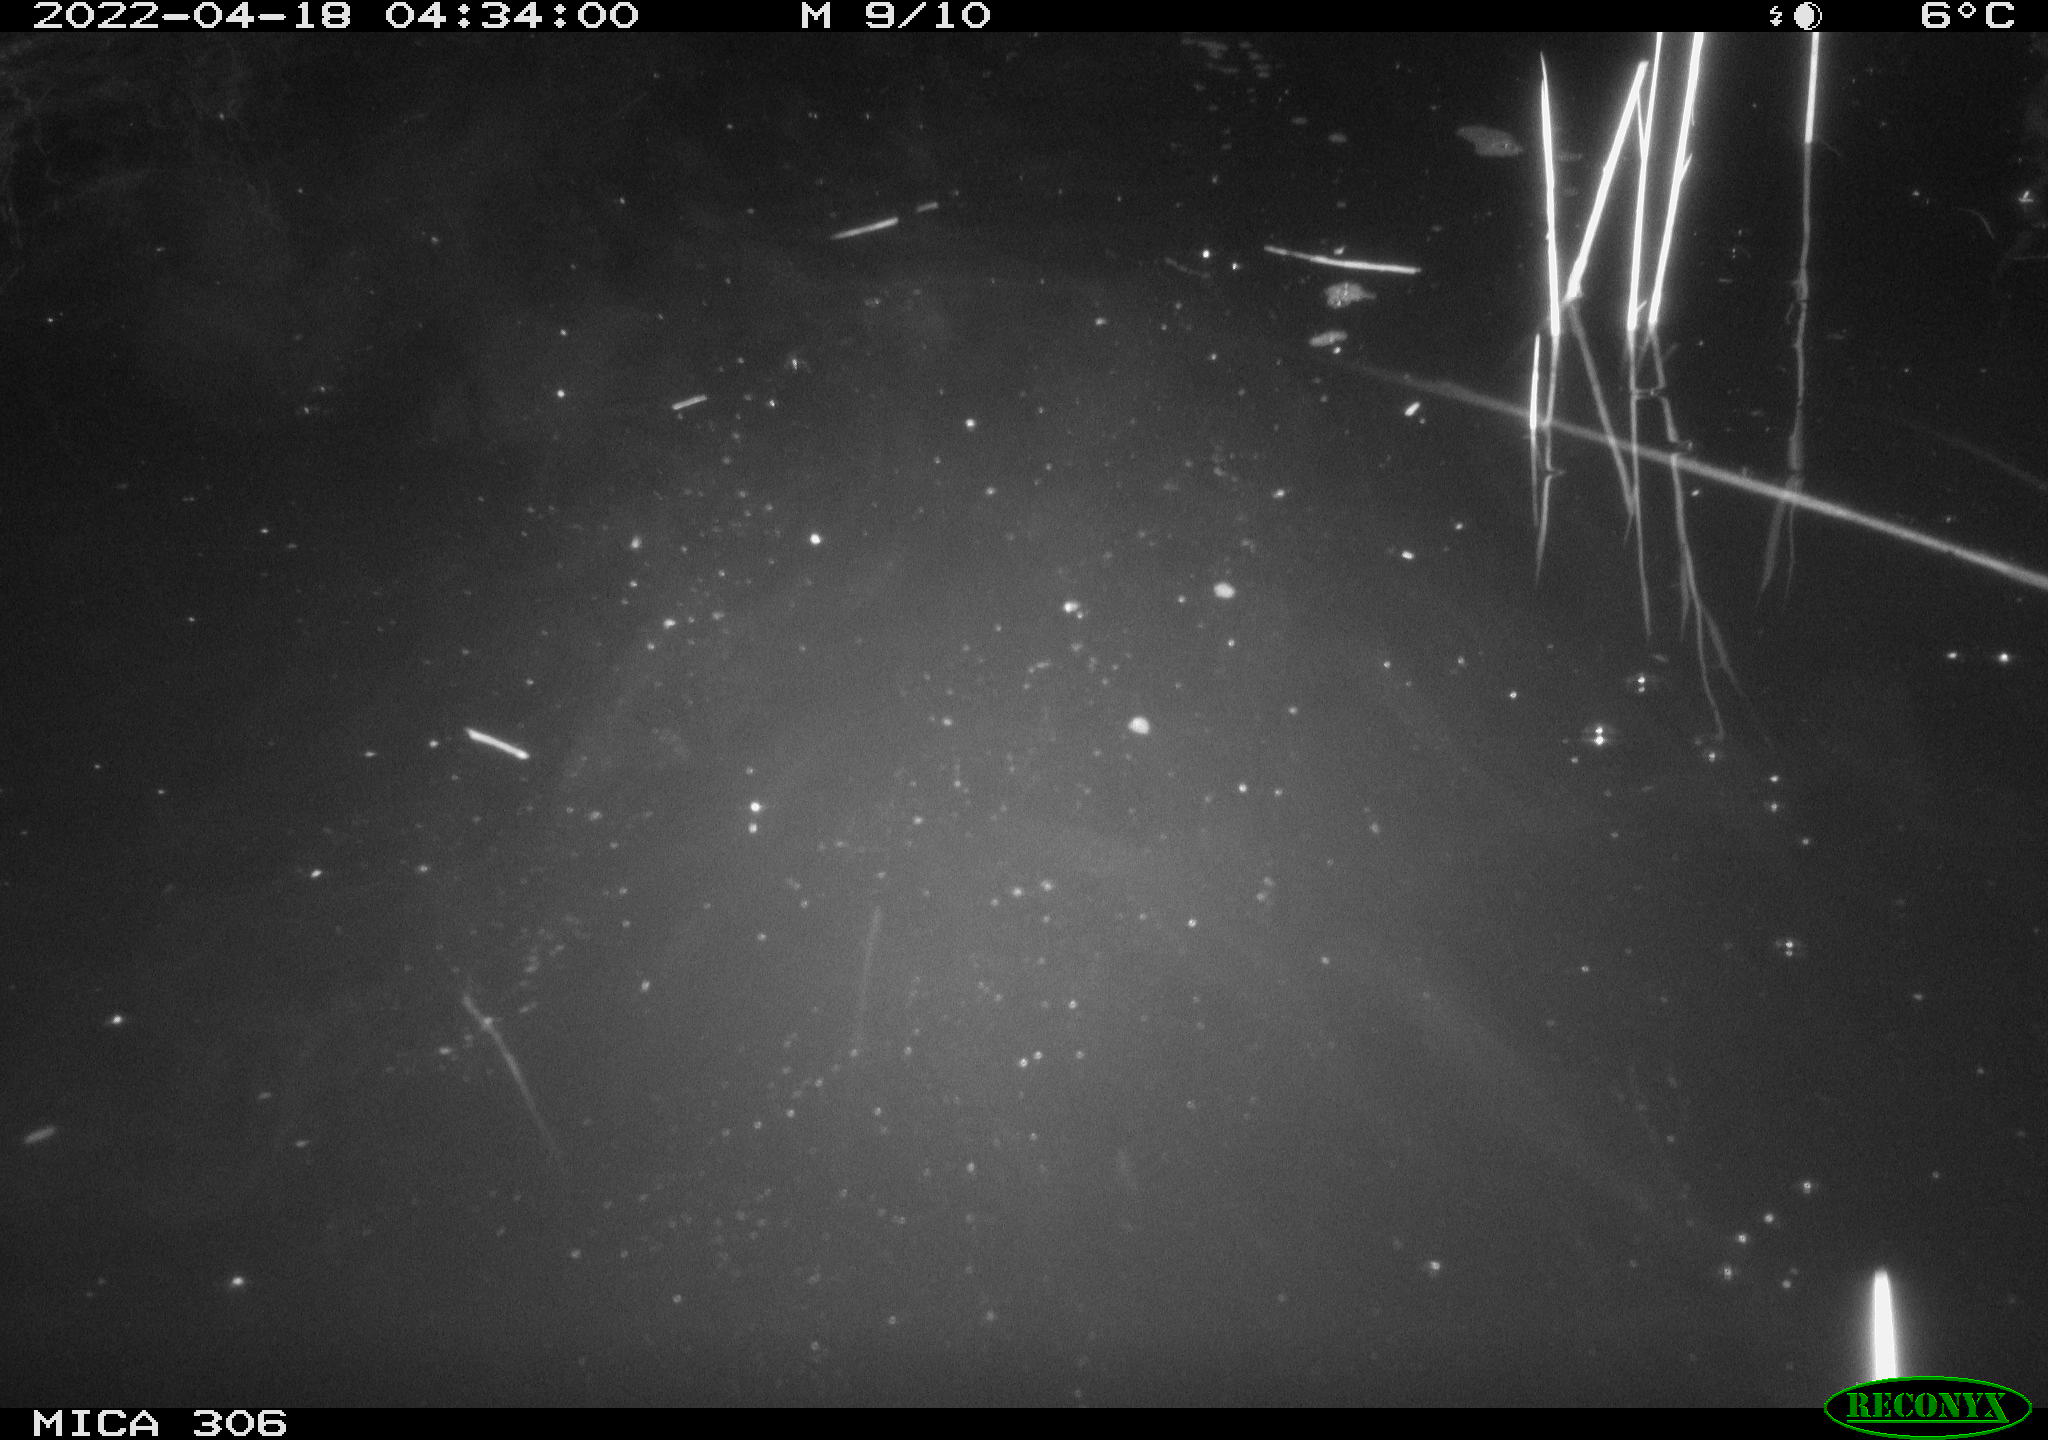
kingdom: Animalia
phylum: Chordata
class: Mammalia
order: Rodentia
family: Cricetidae
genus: Ondatra
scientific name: Ondatra zibethicus
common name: Muskrat
